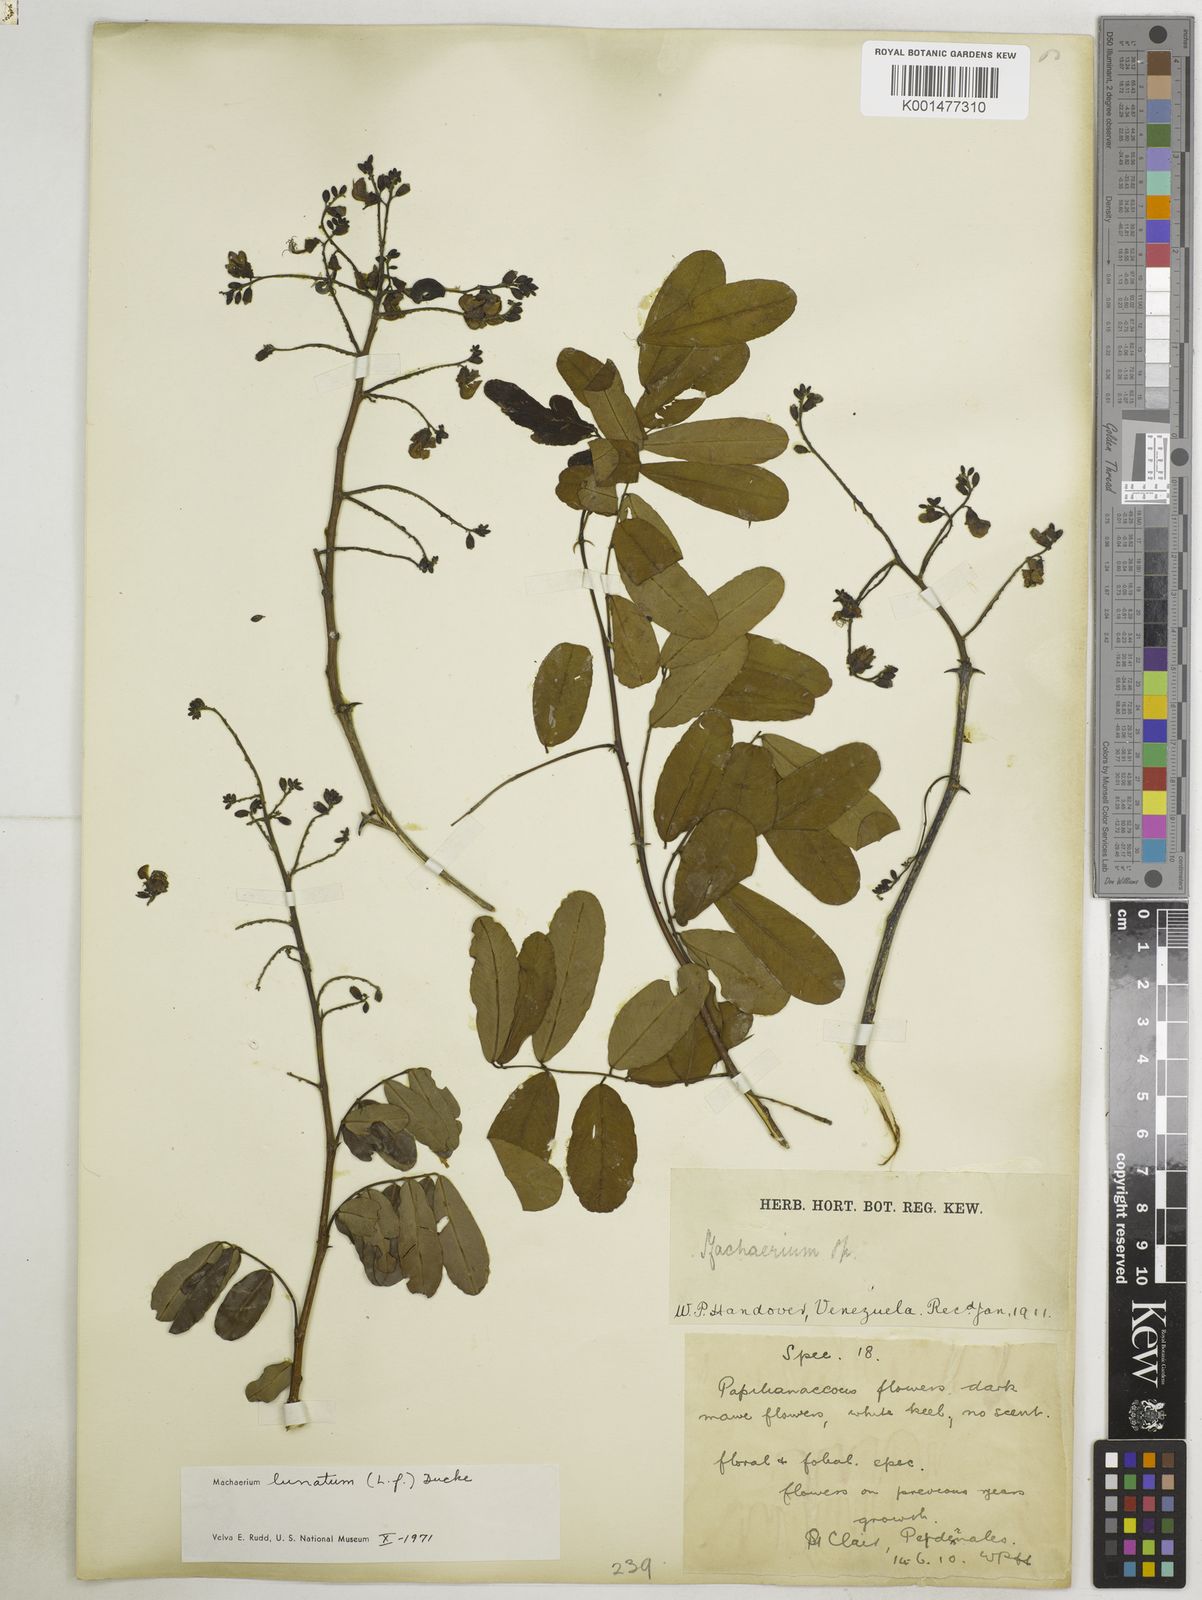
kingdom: Plantae
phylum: Tracheophyta
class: Magnoliopsida
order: Fabales
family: Fabaceae
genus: Machaerium
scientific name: Machaerium lunatum
